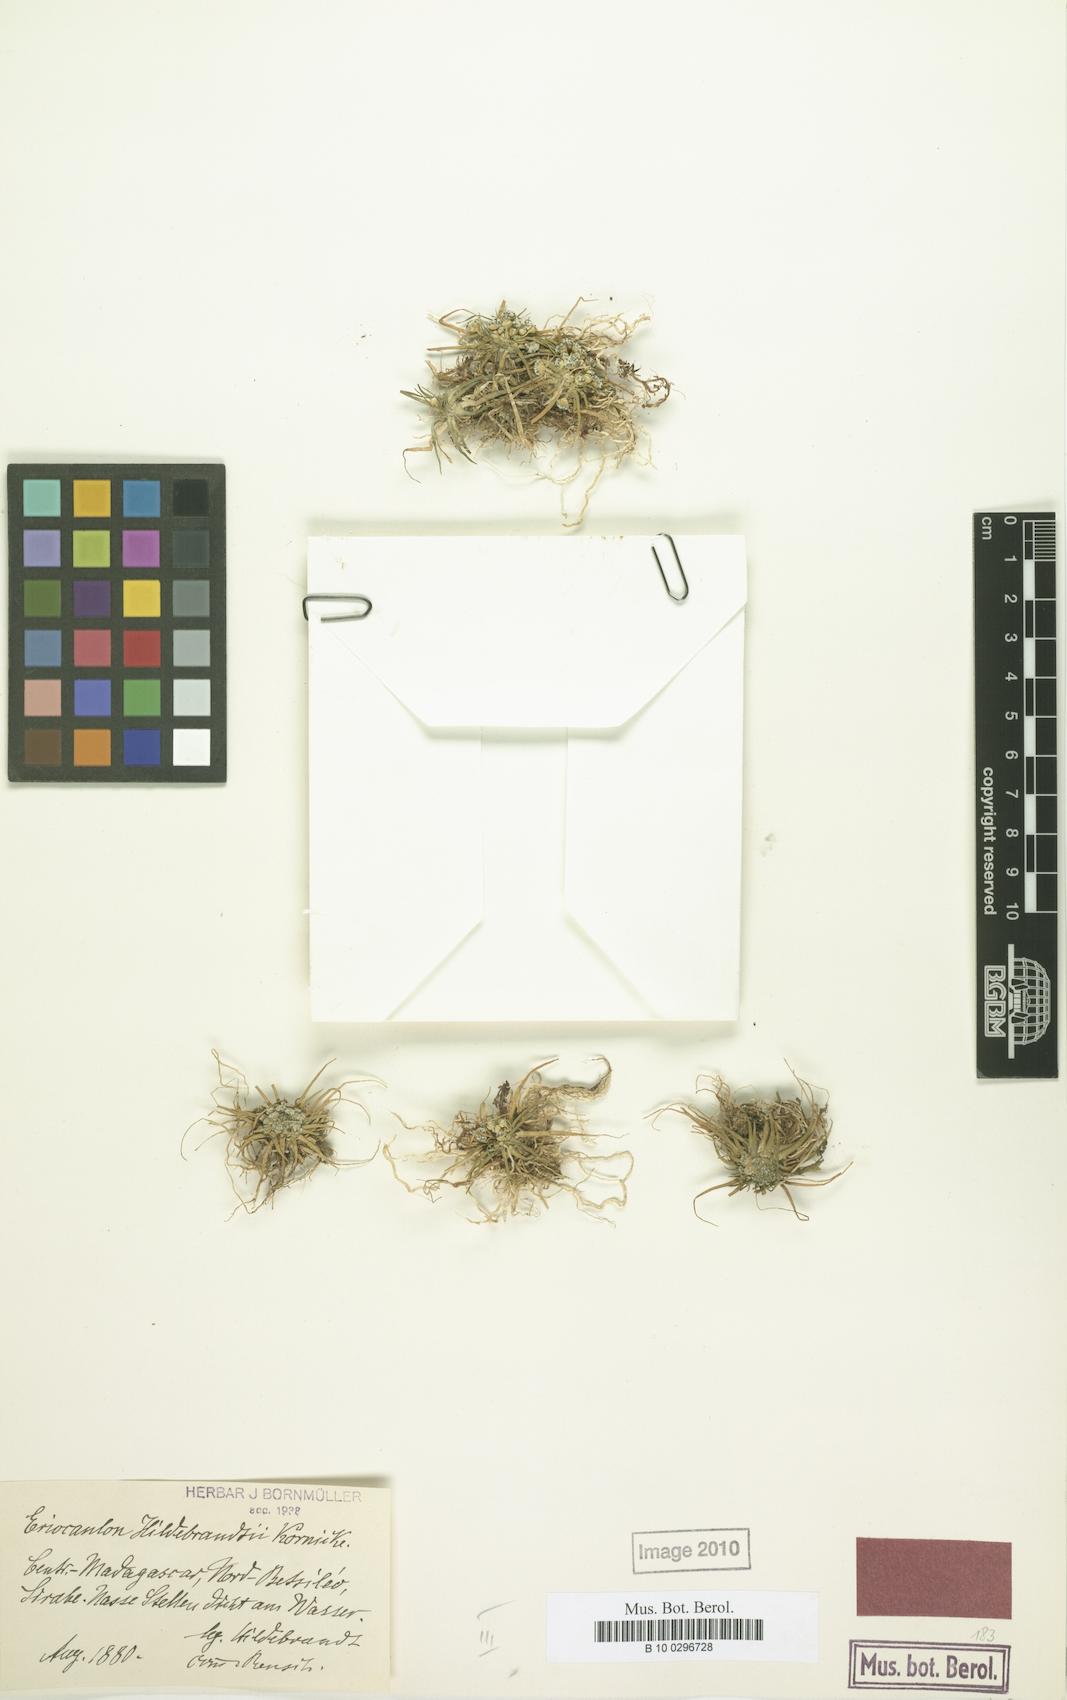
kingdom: Plantae
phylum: Tracheophyta
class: Liliopsida
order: Poales
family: Eriocaulaceae
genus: Eriocaulon
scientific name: Eriocaulon hildebrandtii
